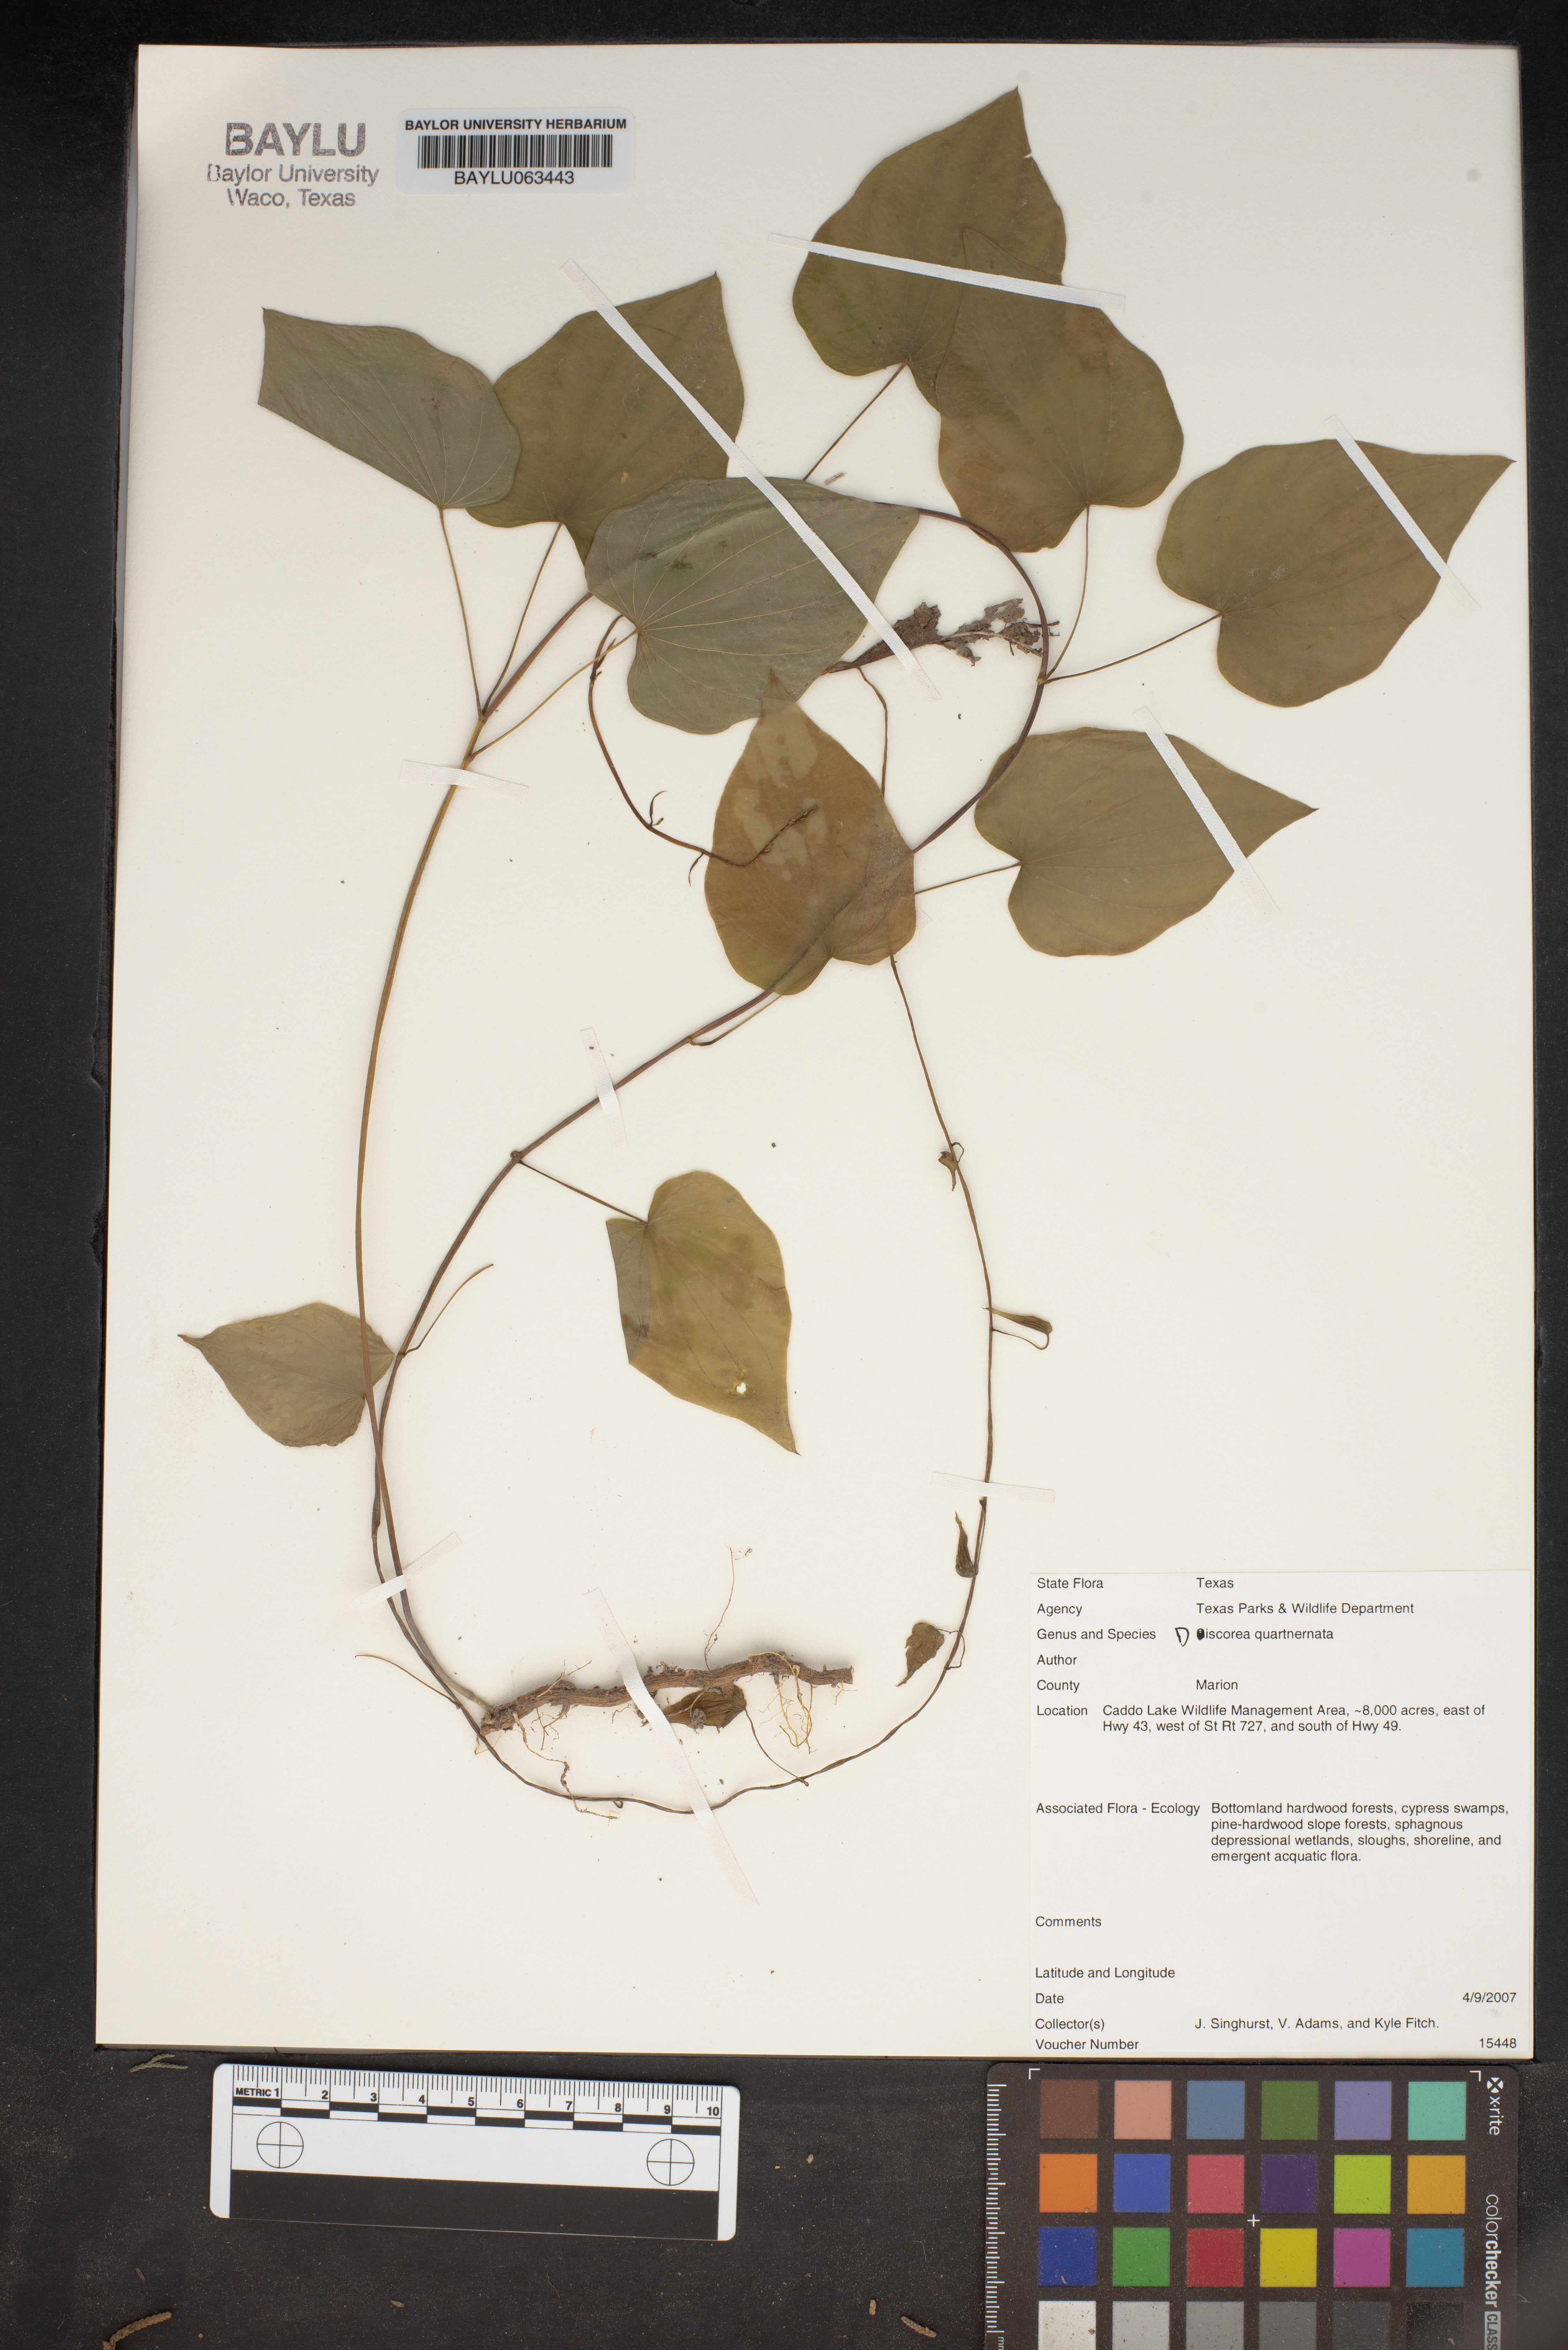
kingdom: Plantae
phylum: Tracheophyta
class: Liliopsida
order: Dioscoreales
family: Dioscoreaceae
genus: Dioscorea
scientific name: Dioscorea quaternata
